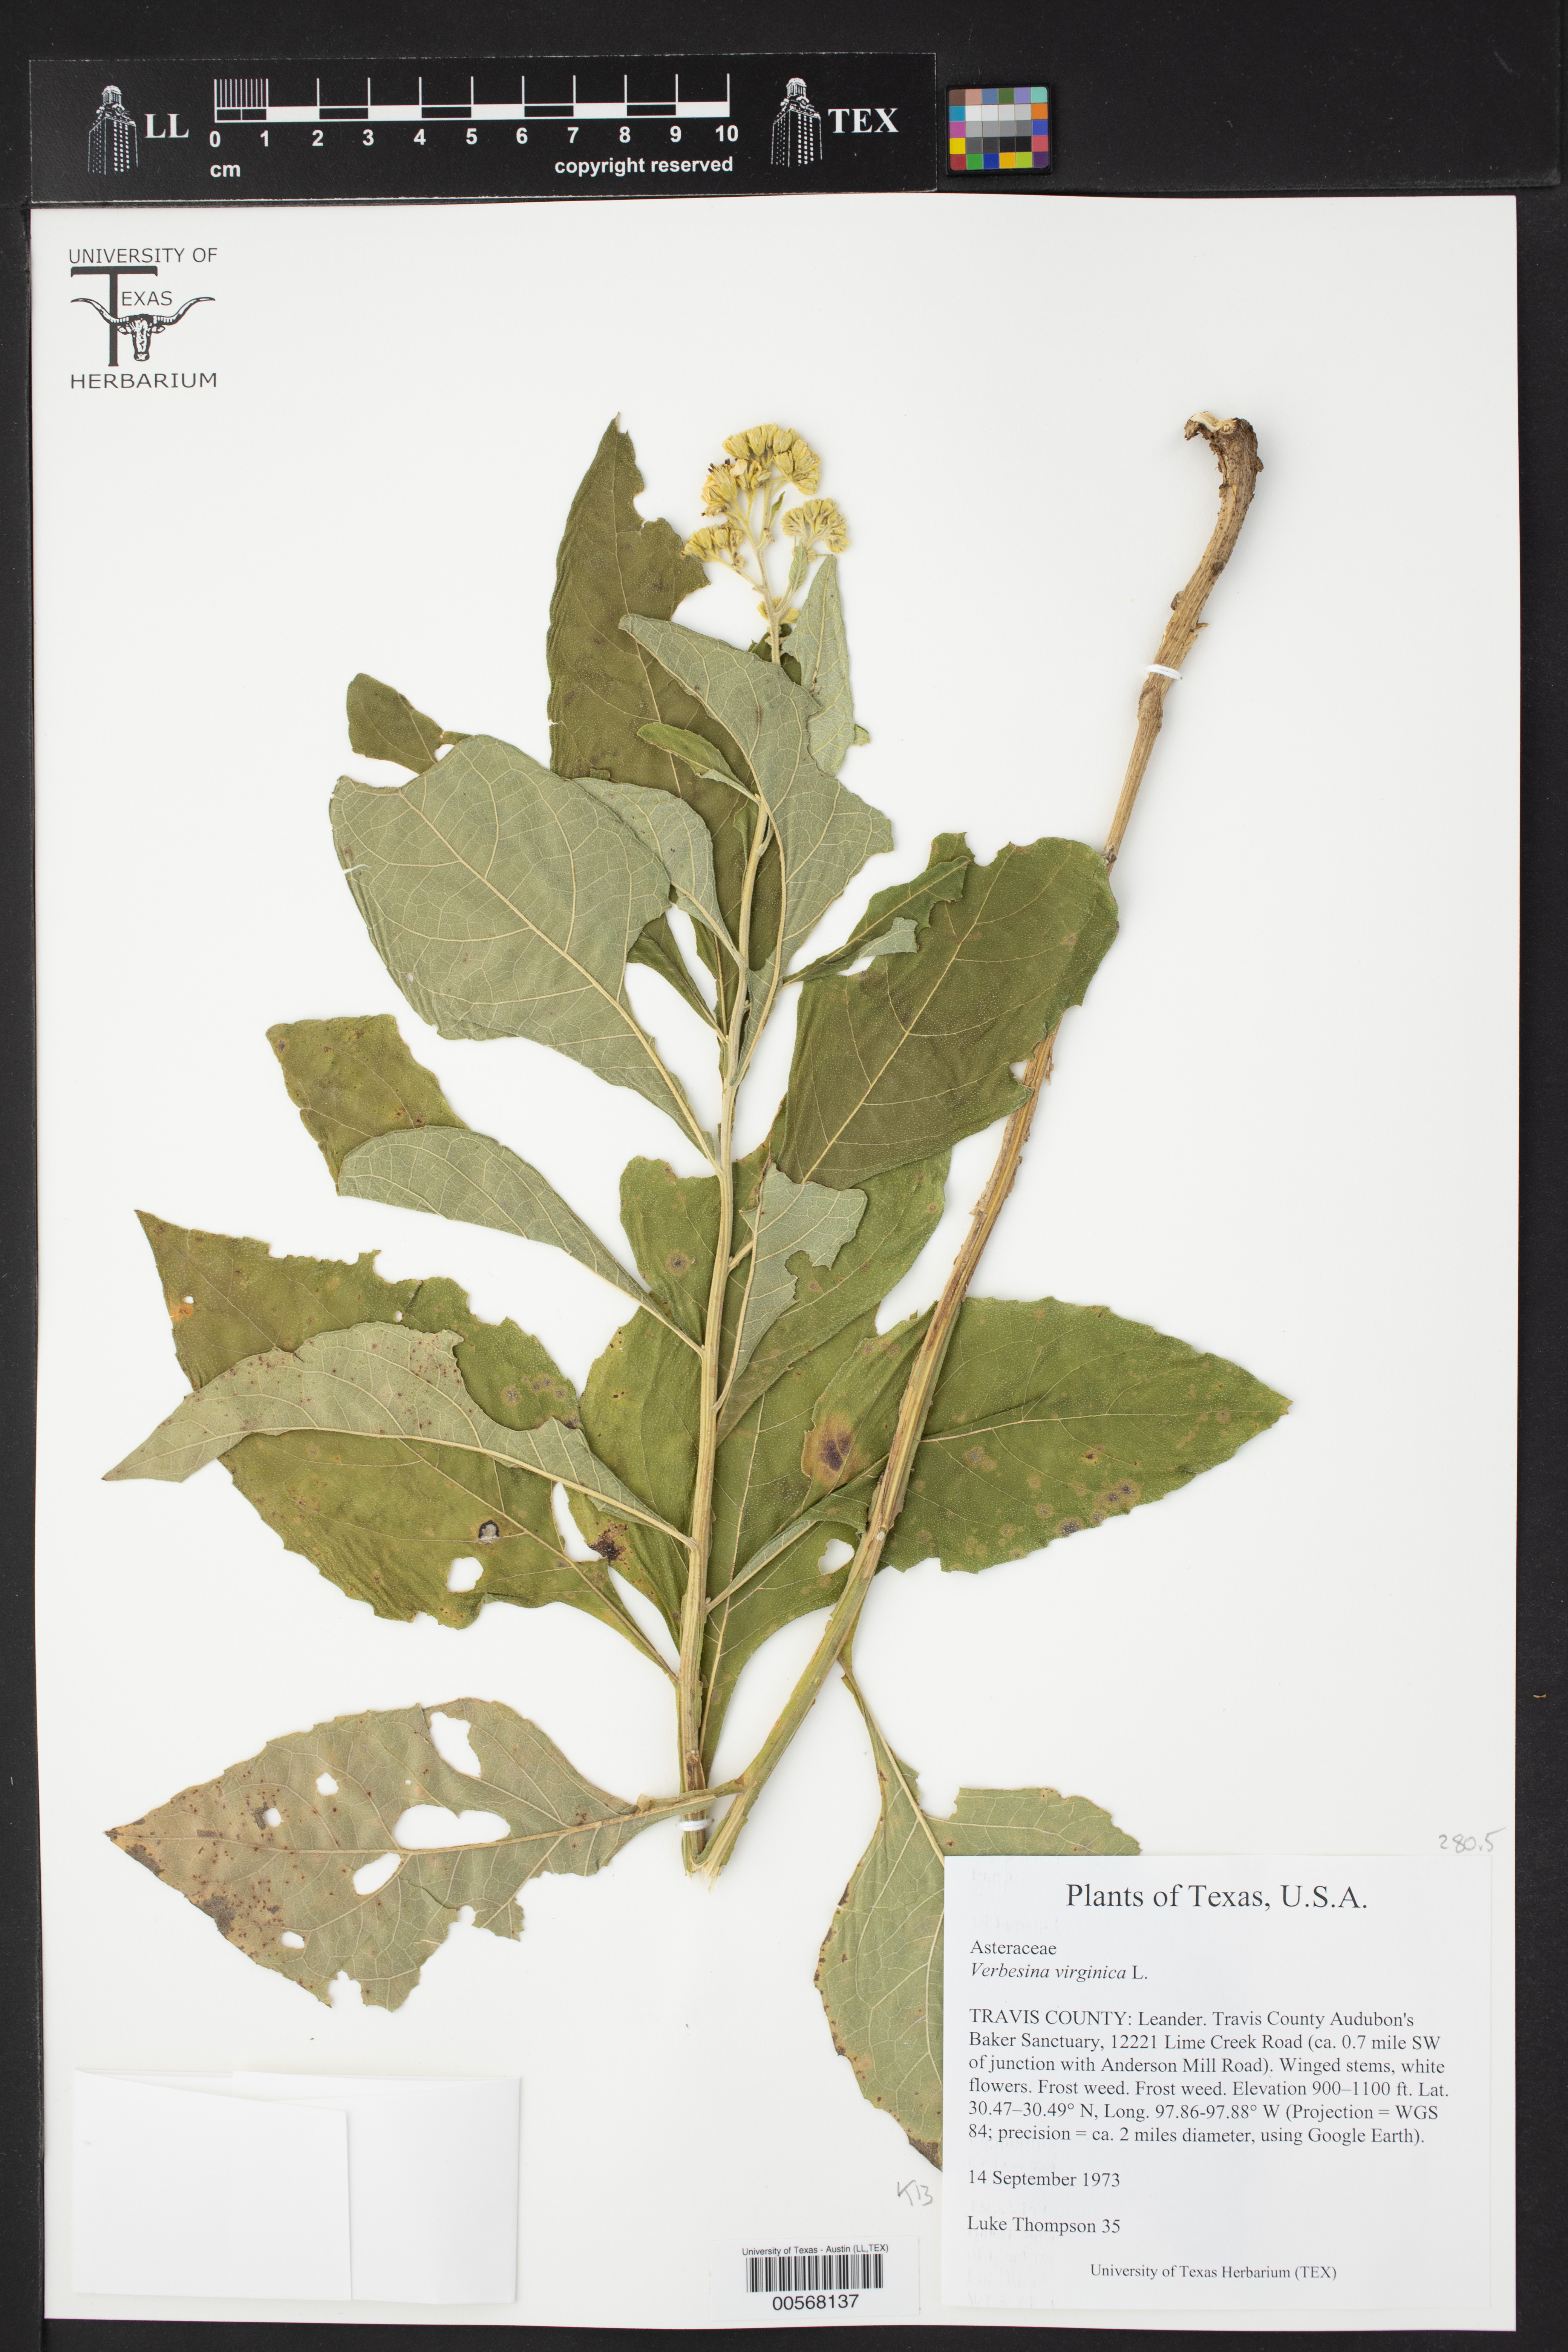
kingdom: Plantae
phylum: Tracheophyta
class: Magnoliopsida
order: Asterales
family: Asteraceae
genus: Verbesina
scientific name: Verbesina virginica
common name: Frostweed
